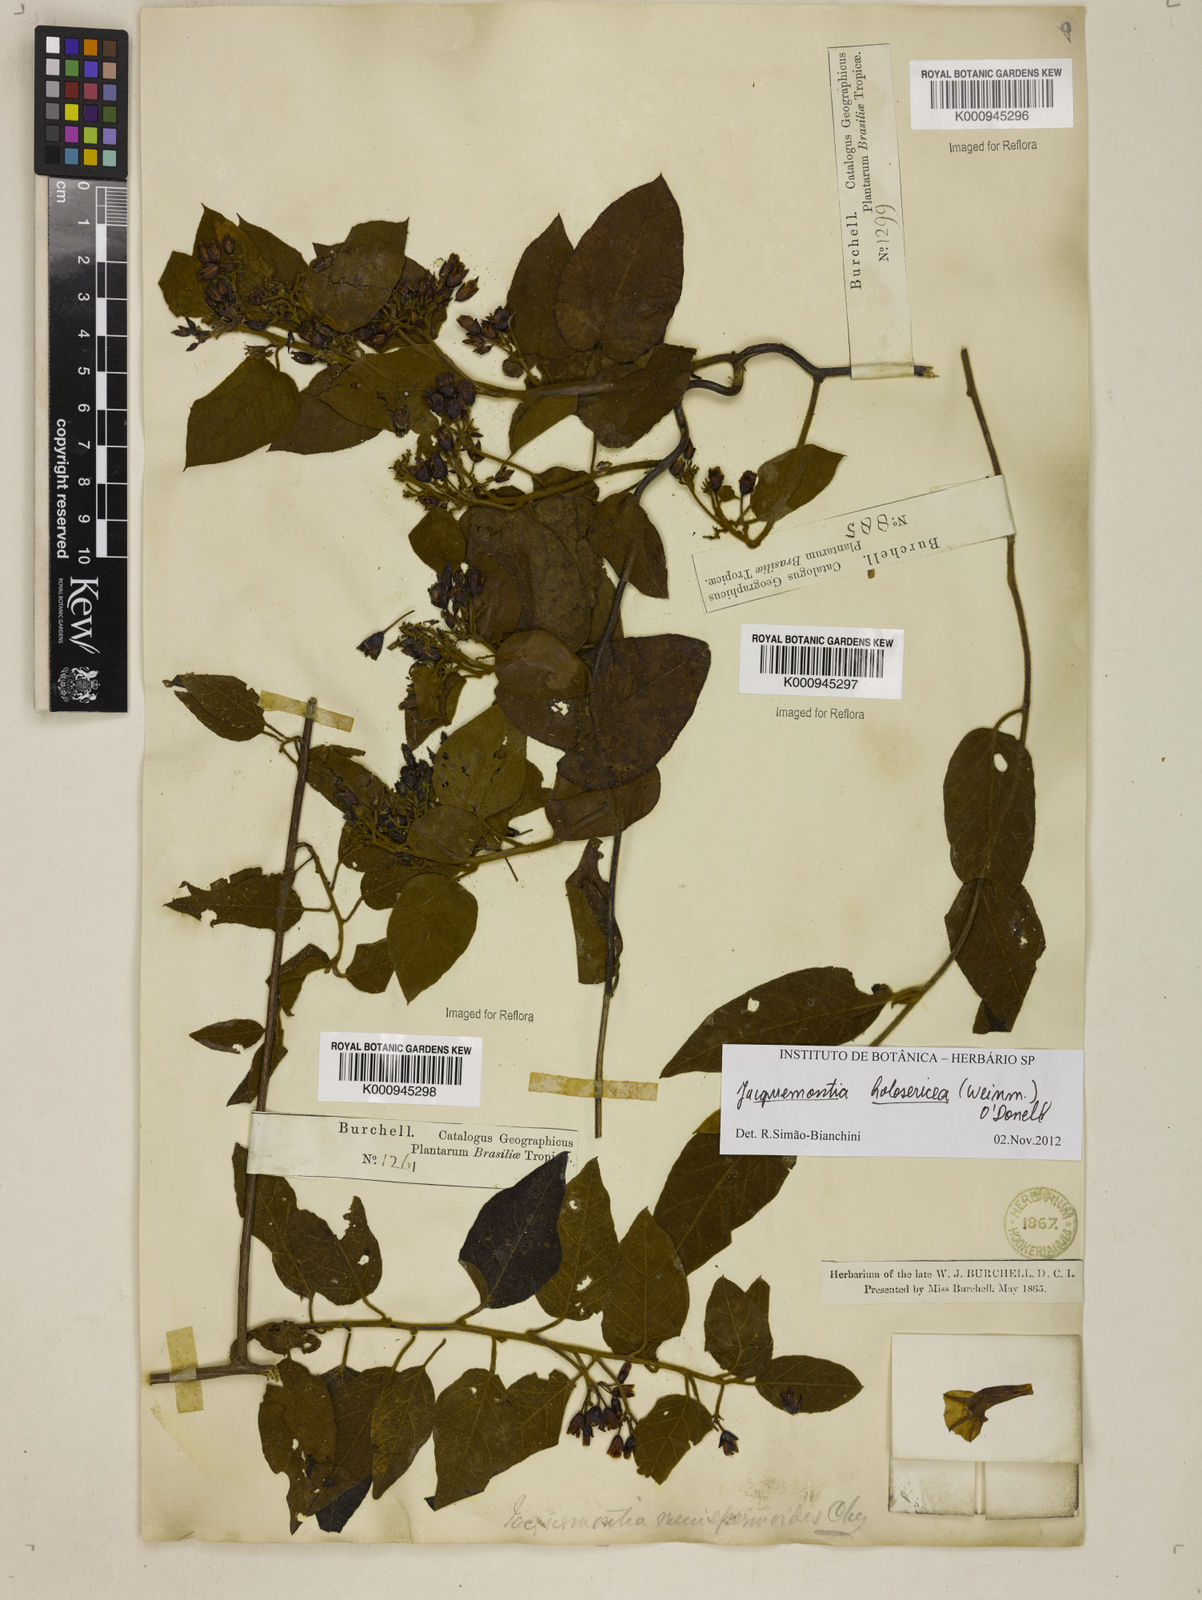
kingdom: Plantae
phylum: Tracheophyta
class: Magnoliopsida
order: Solanales
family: Convolvulaceae
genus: Jacquemontia
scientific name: Jacquemontia holosericea
